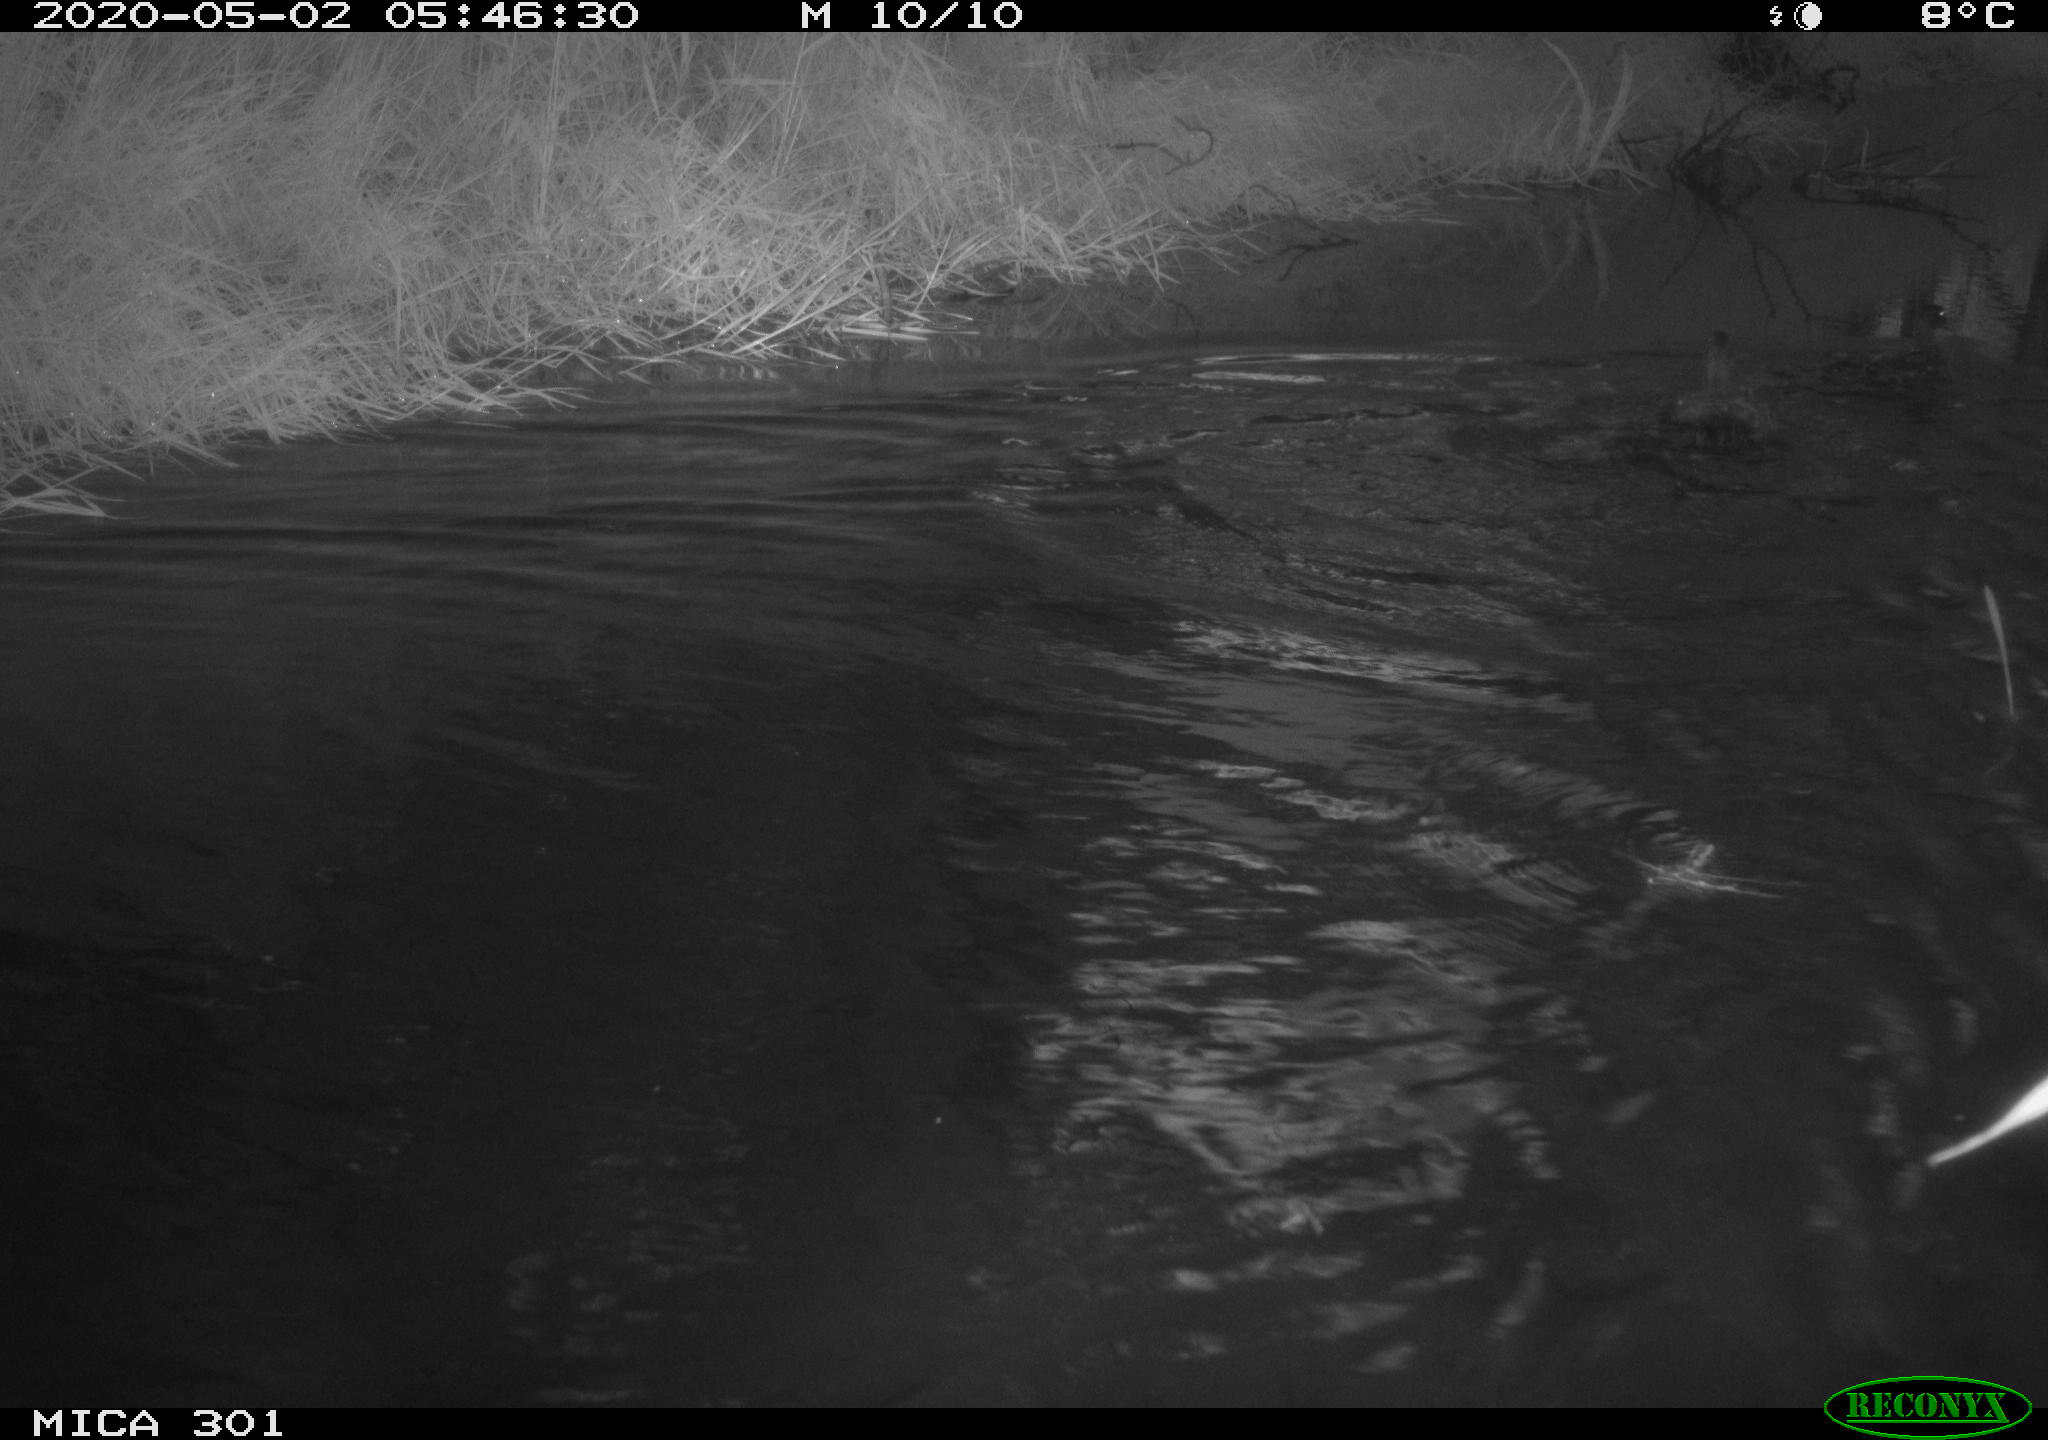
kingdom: Animalia
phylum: Chordata
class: Aves
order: Anseriformes
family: Anatidae
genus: Mareca
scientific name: Mareca strepera
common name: Gadwall
